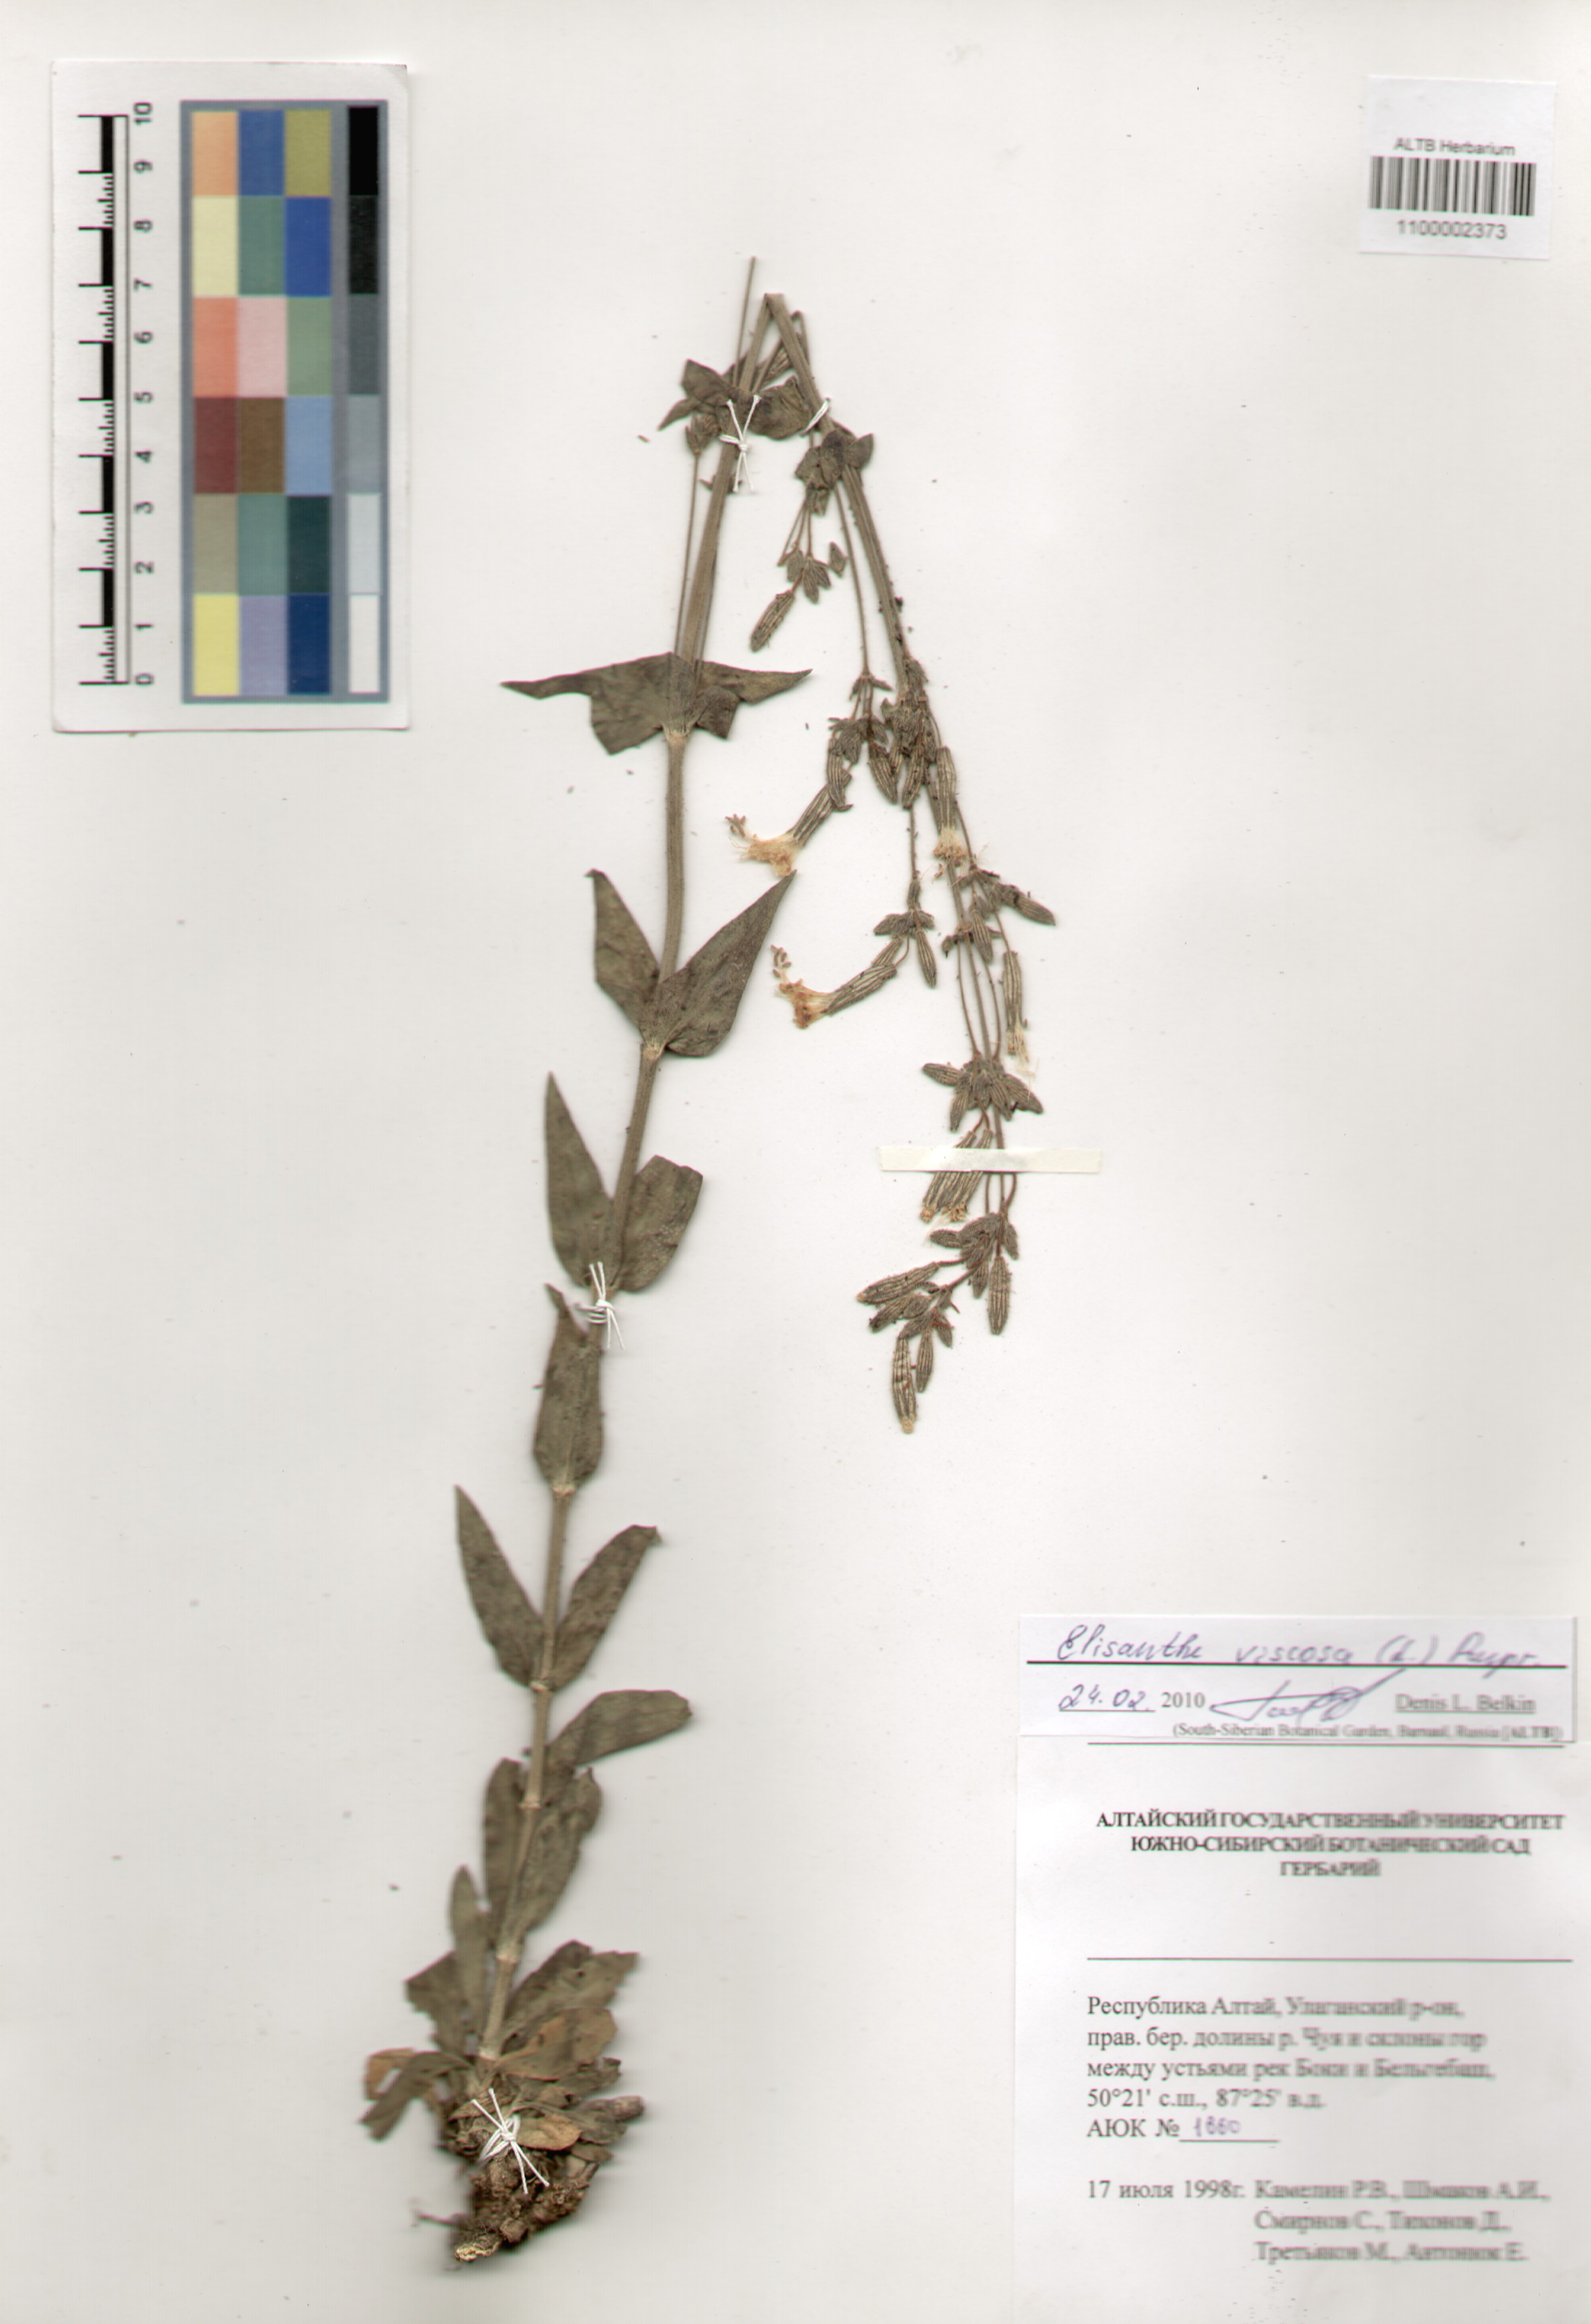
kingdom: Plantae
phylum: Tracheophyta
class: Magnoliopsida
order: Caryophyllales
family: Caryophyllaceae
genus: Silene
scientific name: Silene viscosa
